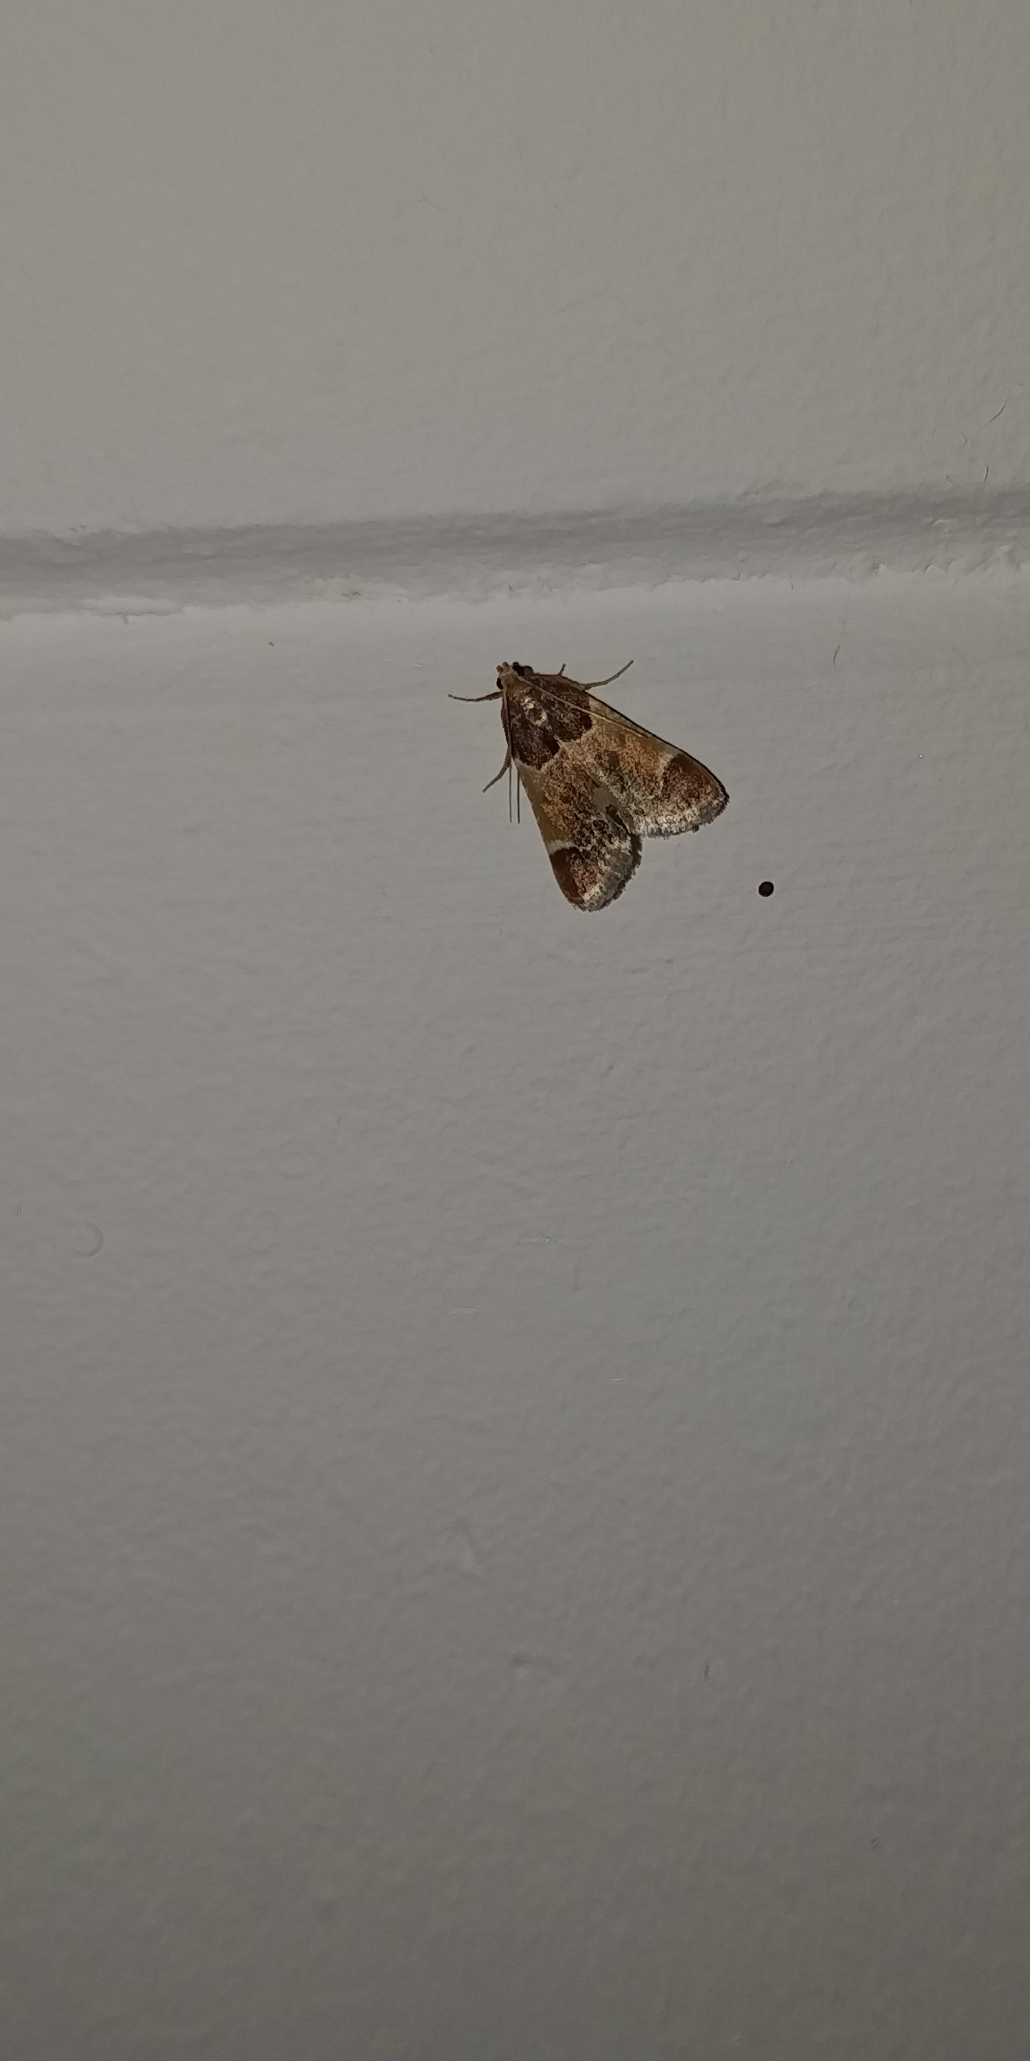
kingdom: Animalia
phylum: Arthropoda
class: Insecta
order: Lepidoptera
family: Pyralidae
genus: Pyralis
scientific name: Pyralis farinalis
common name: Stort melmøl
